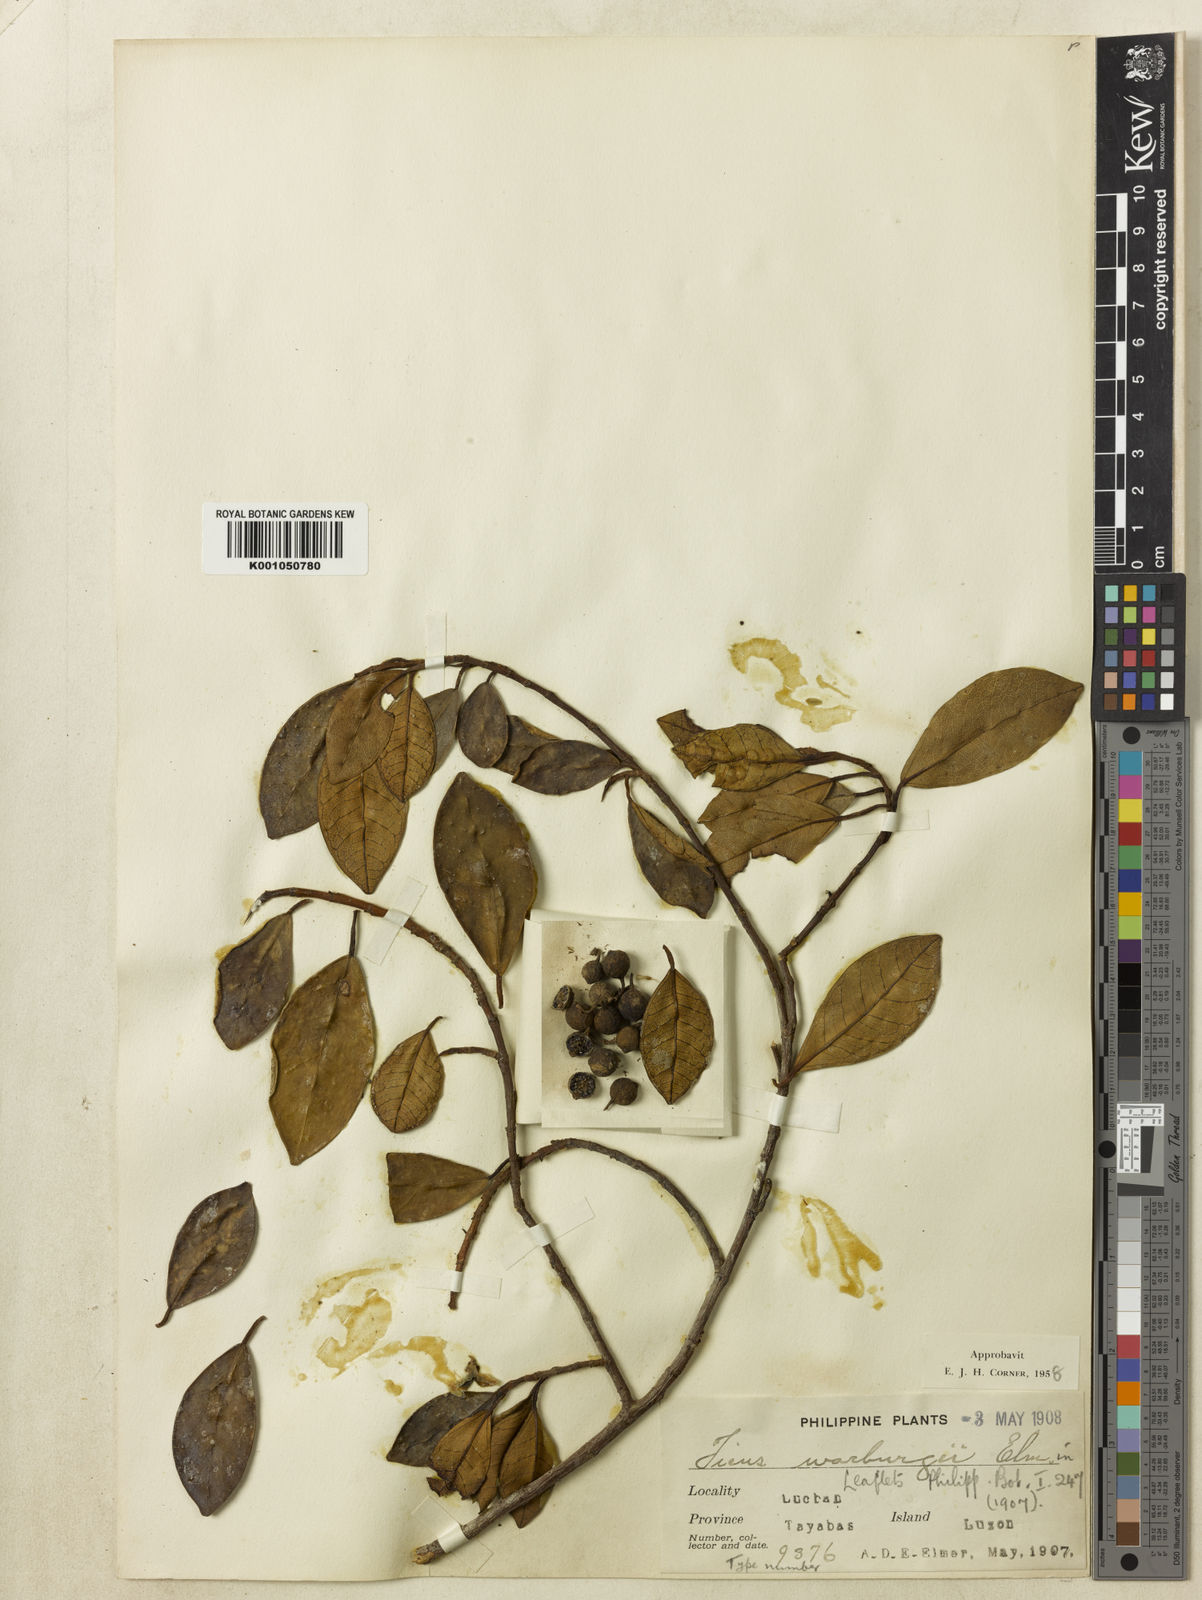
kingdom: Plantae
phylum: Tracheophyta
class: Magnoliopsida
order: Rosales
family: Moraceae
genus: Ficus
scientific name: Ficus warburgii
